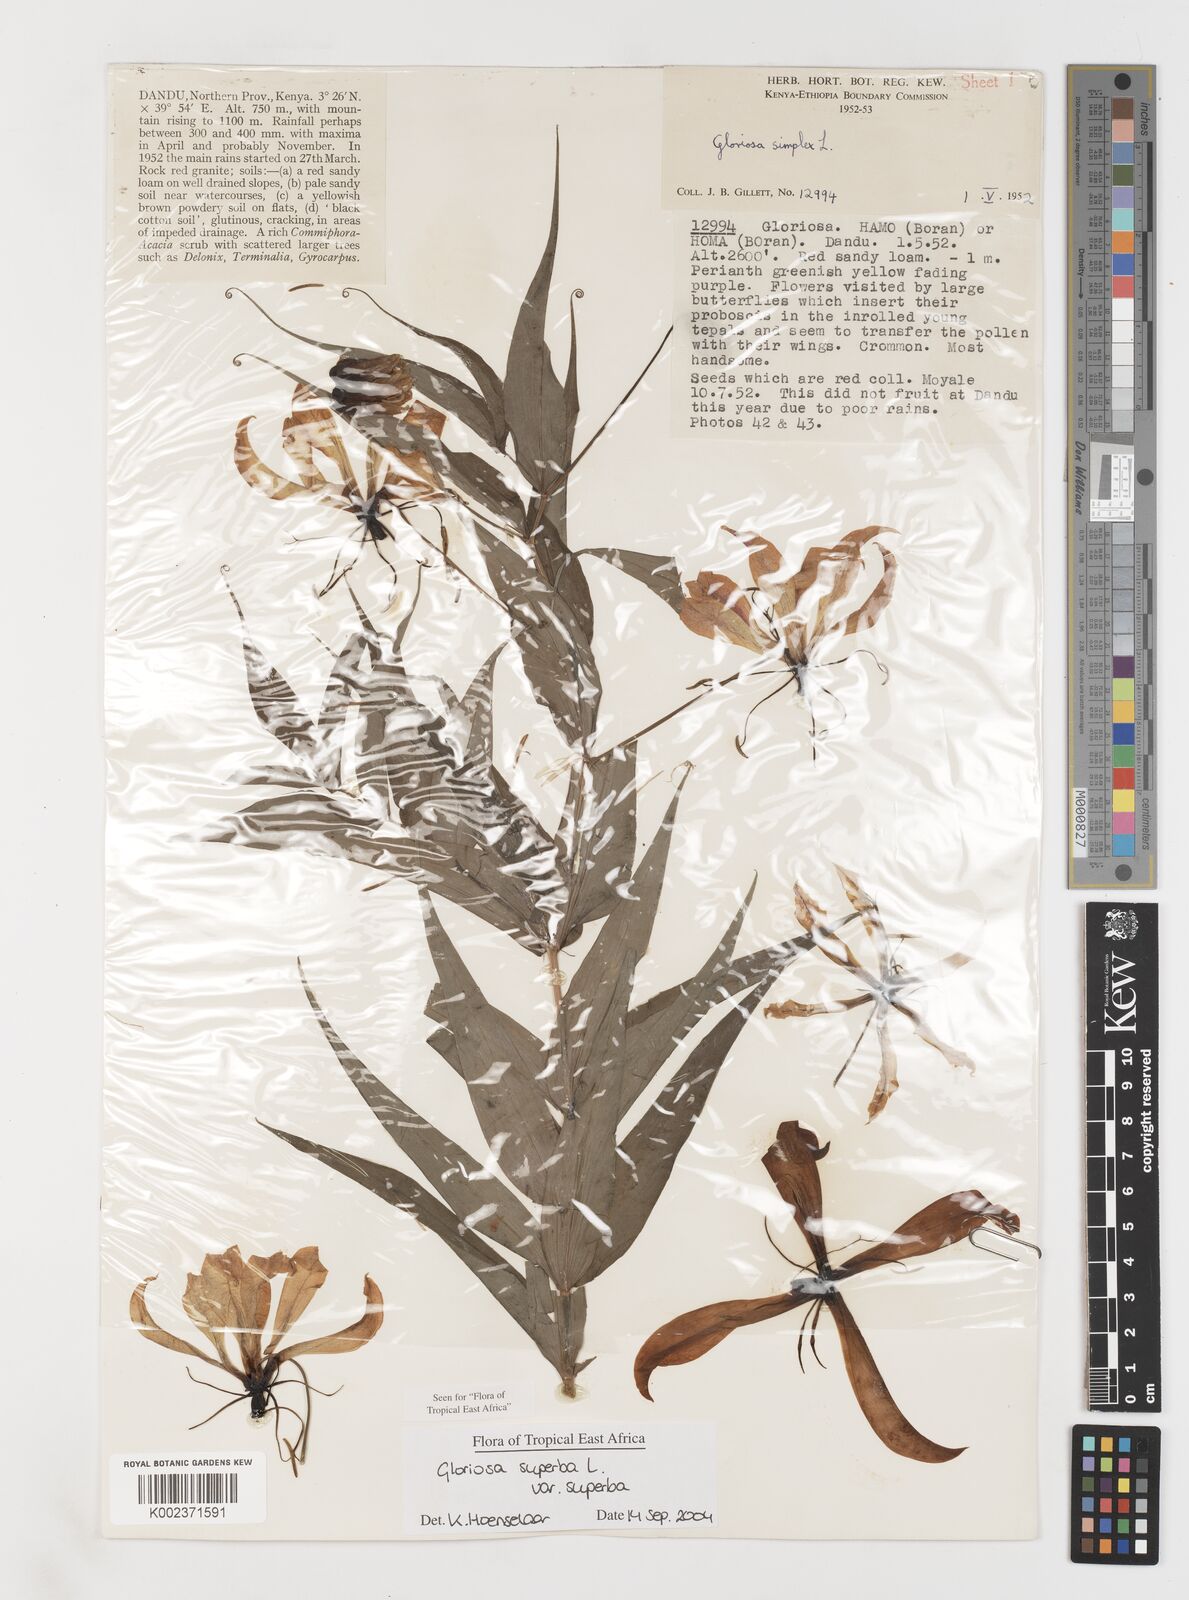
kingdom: Plantae
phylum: Tracheophyta
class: Liliopsida
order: Liliales
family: Colchicaceae
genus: Gloriosa
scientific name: Gloriosa simplex
